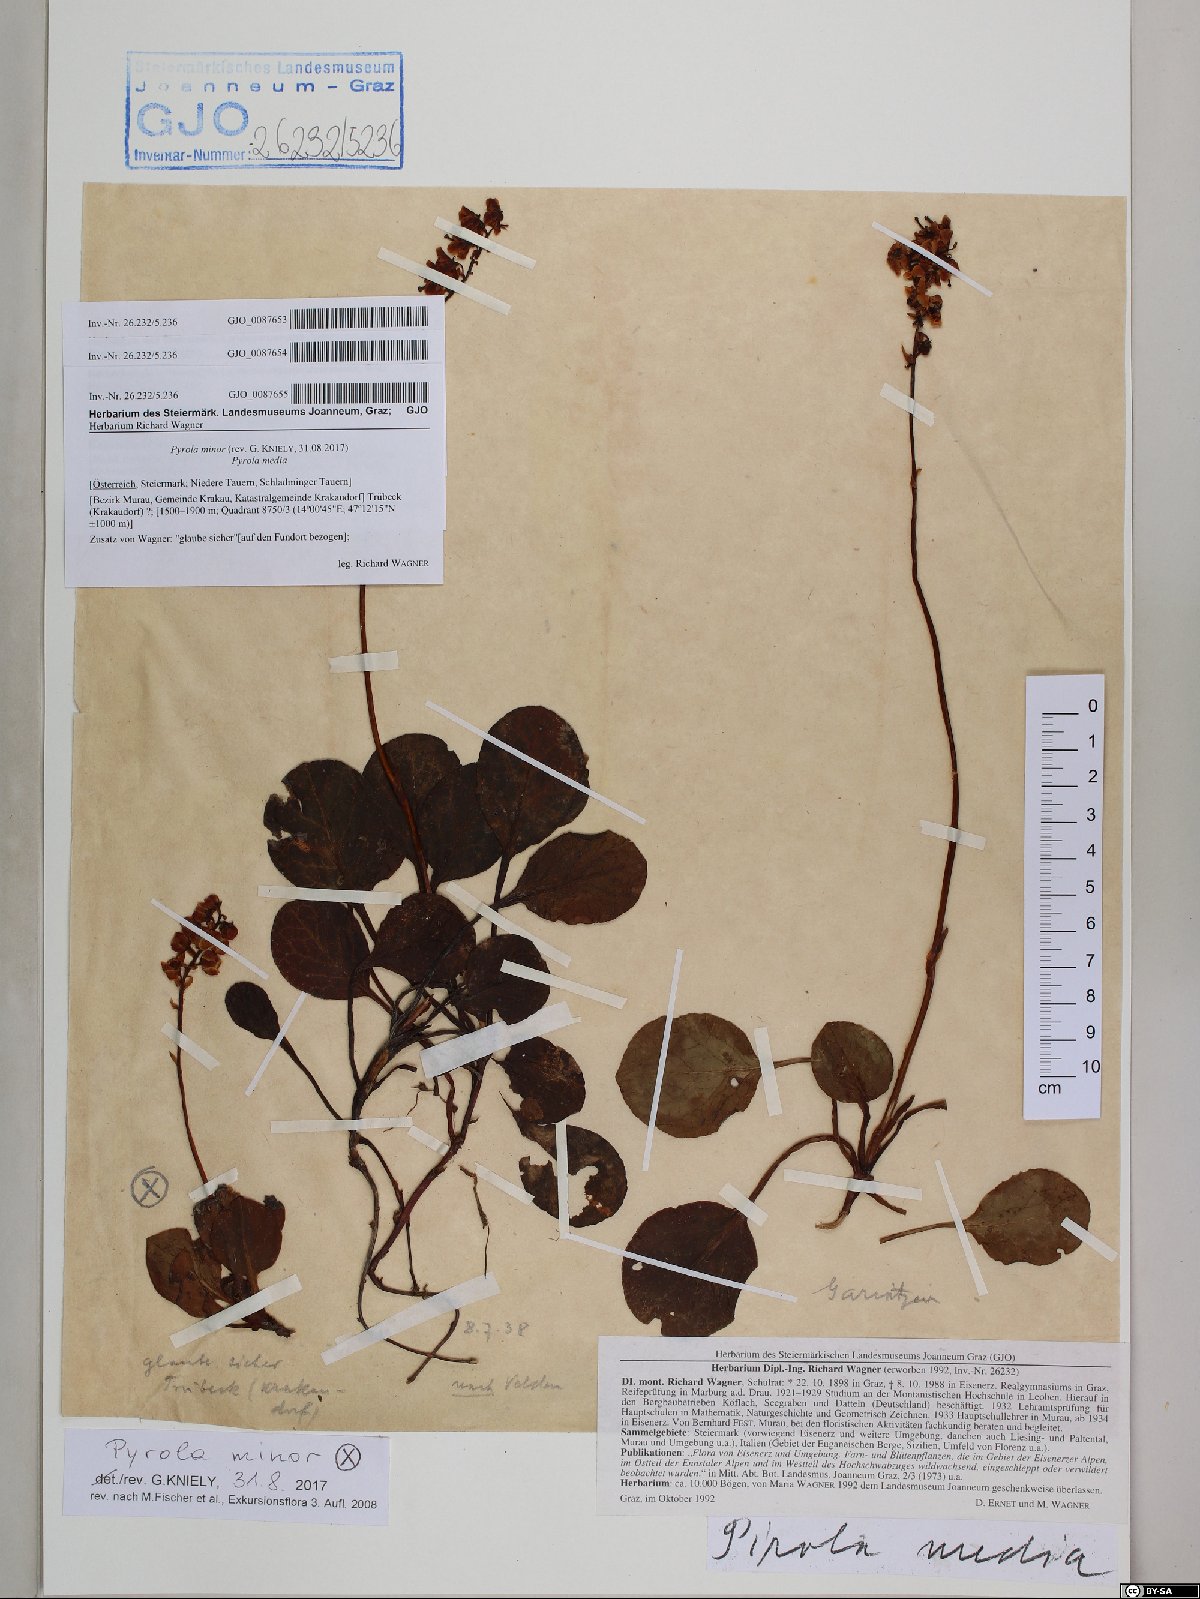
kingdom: Plantae
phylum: Tracheophyta
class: Magnoliopsida
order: Ericales
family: Ericaceae
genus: Pyrola
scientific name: Pyrola media
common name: Intermediate wintergreen
